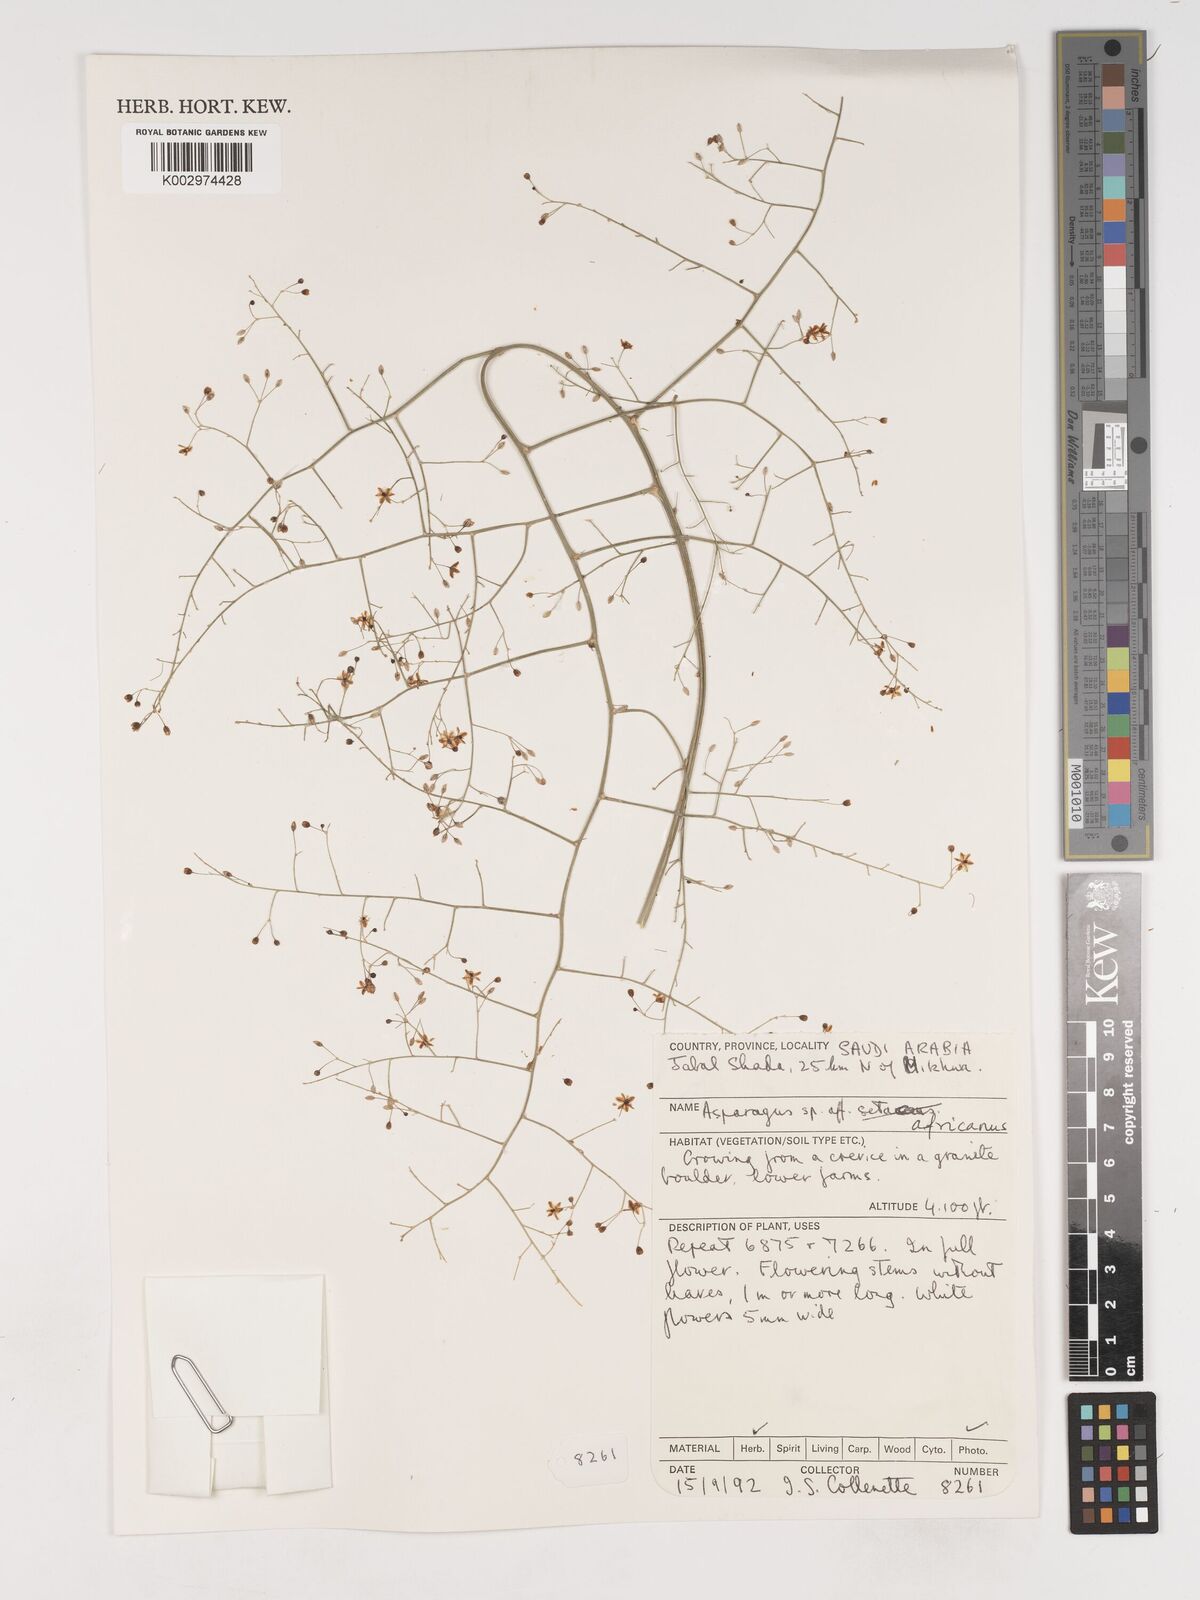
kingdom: Plantae
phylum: Tracheophyta
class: Liliopsida
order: Asparagales
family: Asparagaceae
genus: Asparagus
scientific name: Asparagus africanus
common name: Asparagus-fern
